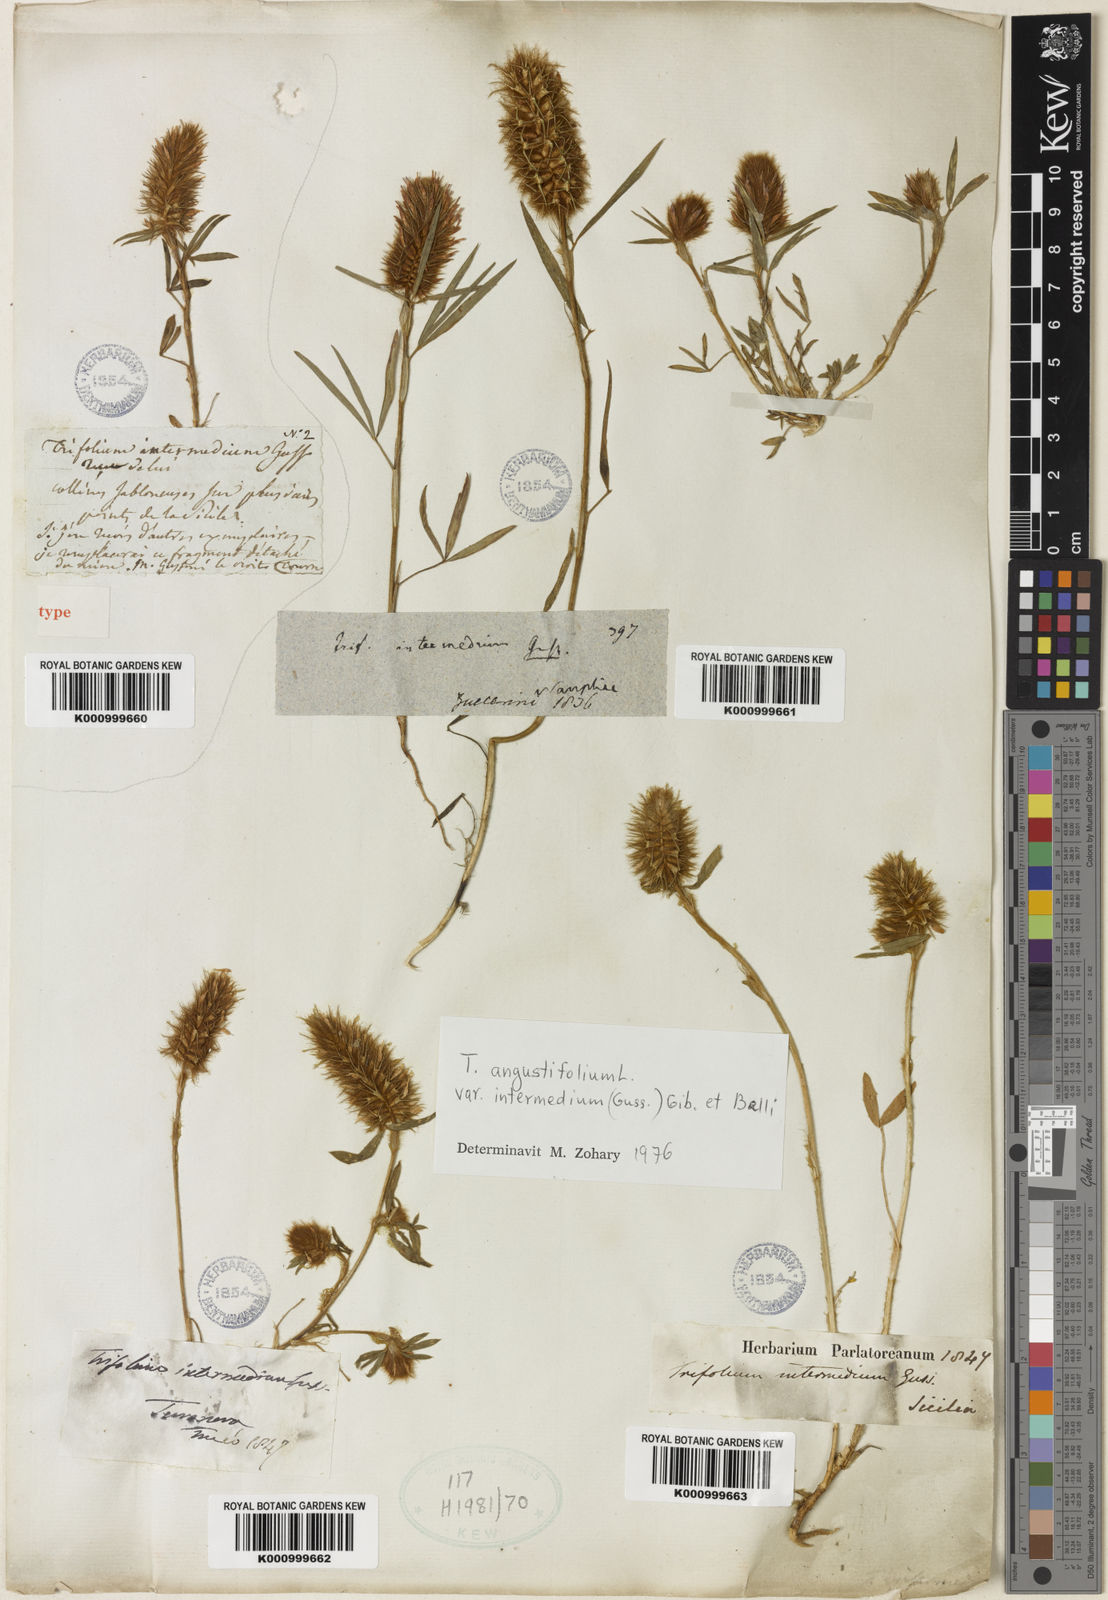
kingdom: Plantae
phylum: Tracheophyta
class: Magnoliopsida
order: Fabales
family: Fabaceae
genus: Trifolium
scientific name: Trifolium angustifolium
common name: Narrow clover
